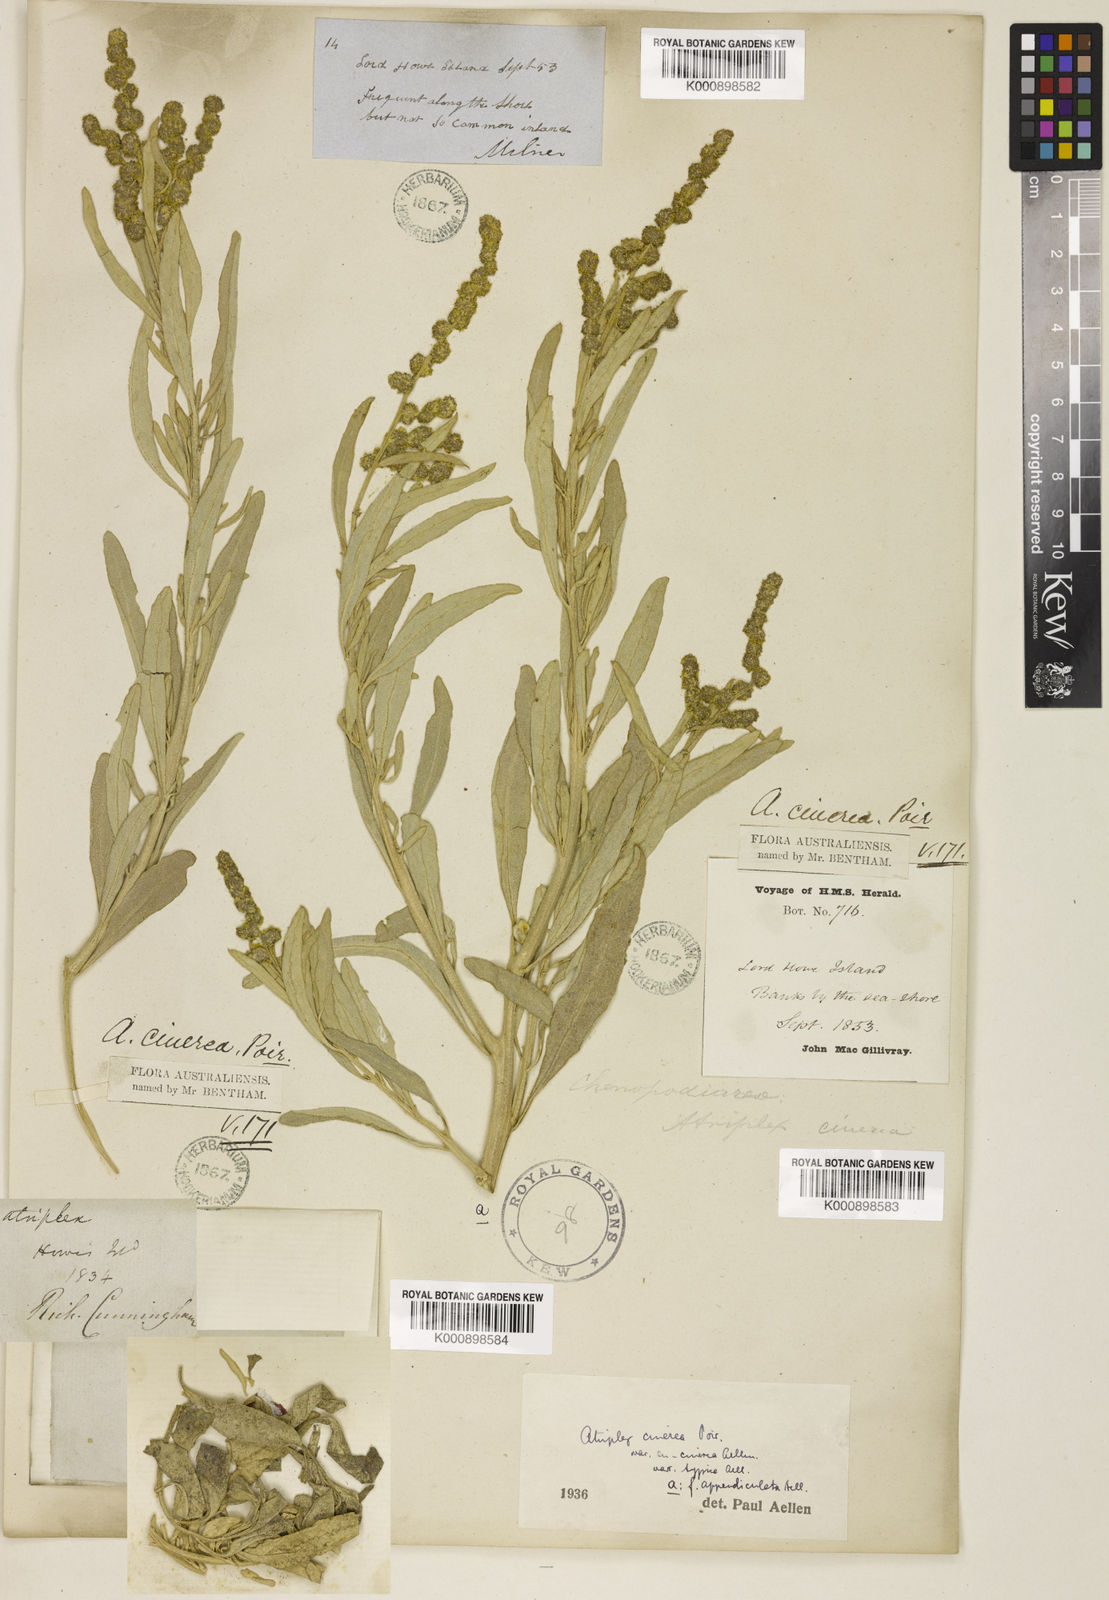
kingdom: Plantae
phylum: Tracheophyta
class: Magnoliopsida
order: Caryophyllales
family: Amaranthaceae
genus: Atriplex
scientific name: Atriplex cinerea
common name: Grey saltbush
